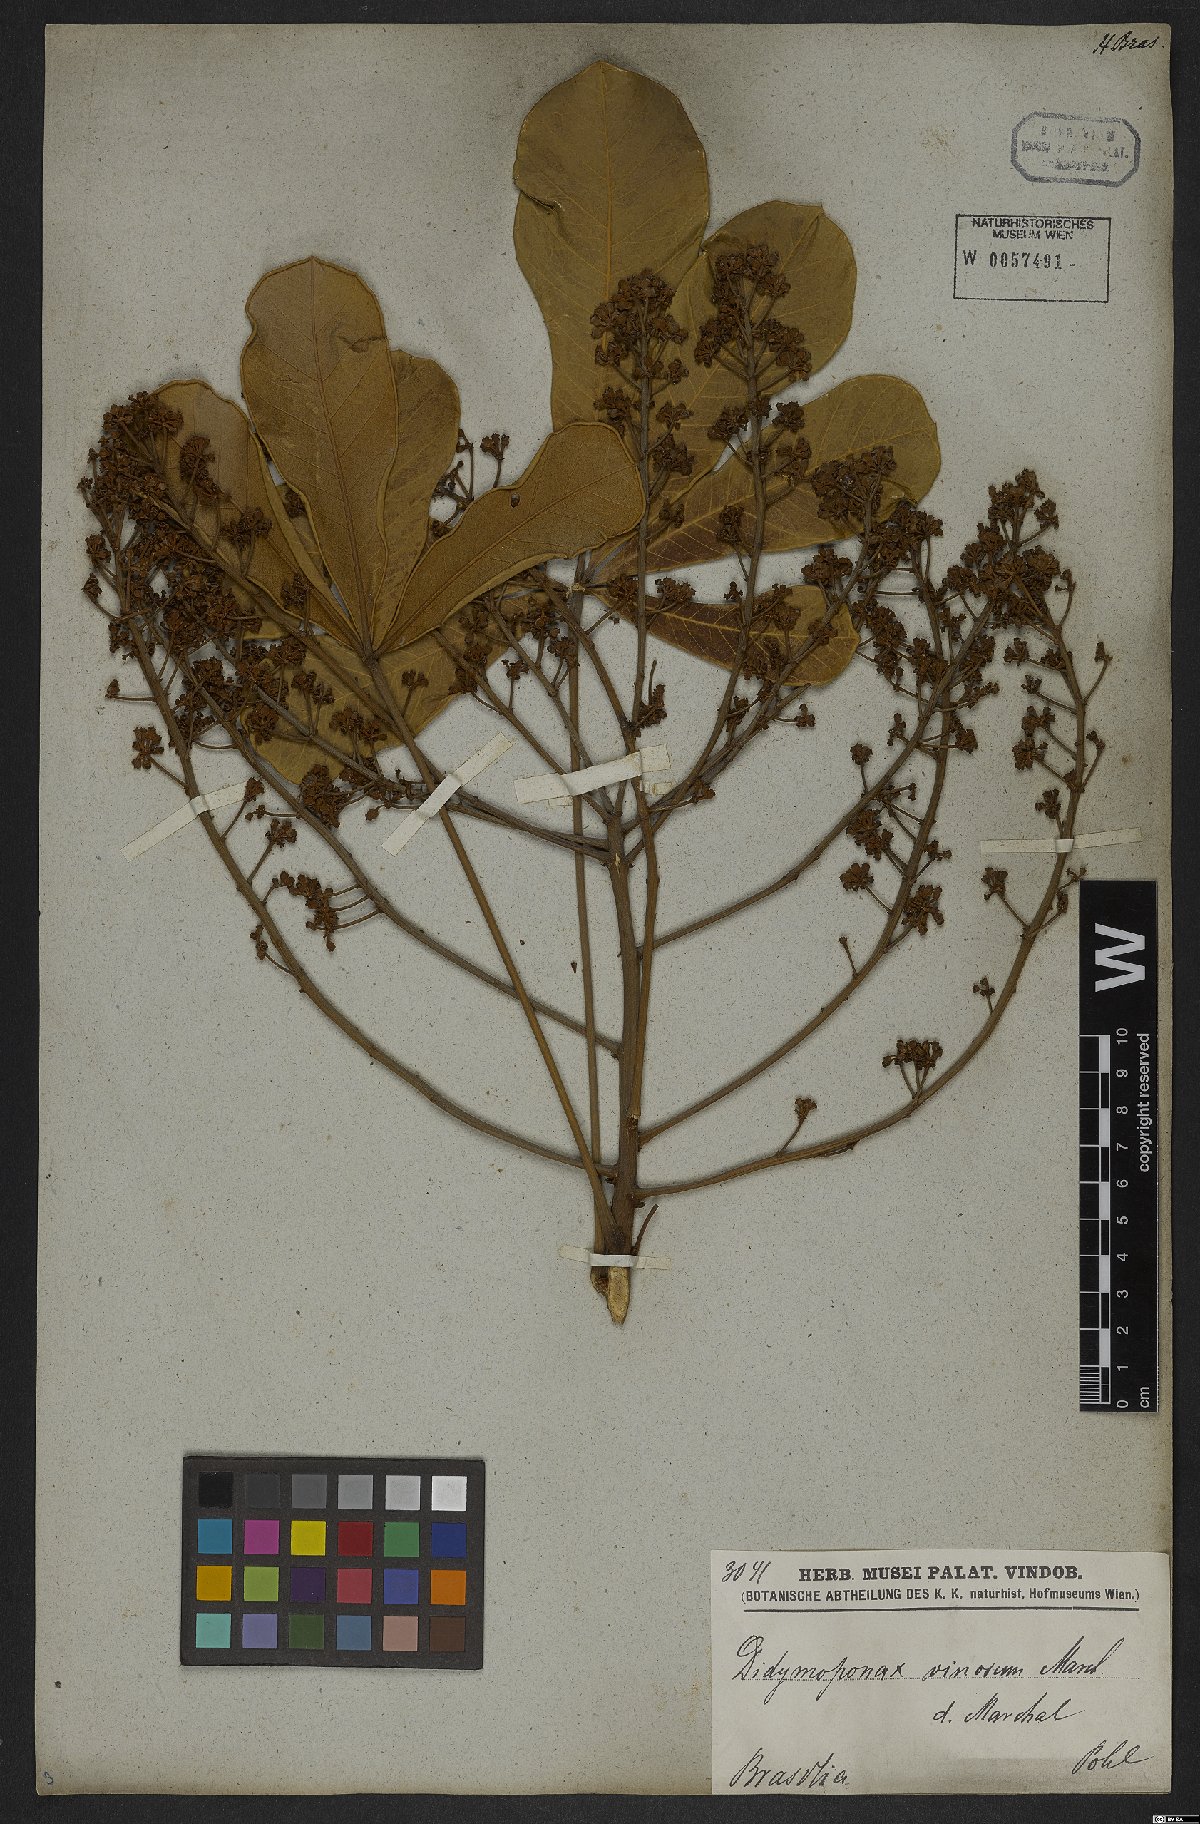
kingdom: Plantae
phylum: Tracheophyta
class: Magnoliopsida
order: Apiales
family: Araliaceae
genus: Didymopanax
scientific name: Didymopanax vinosus
